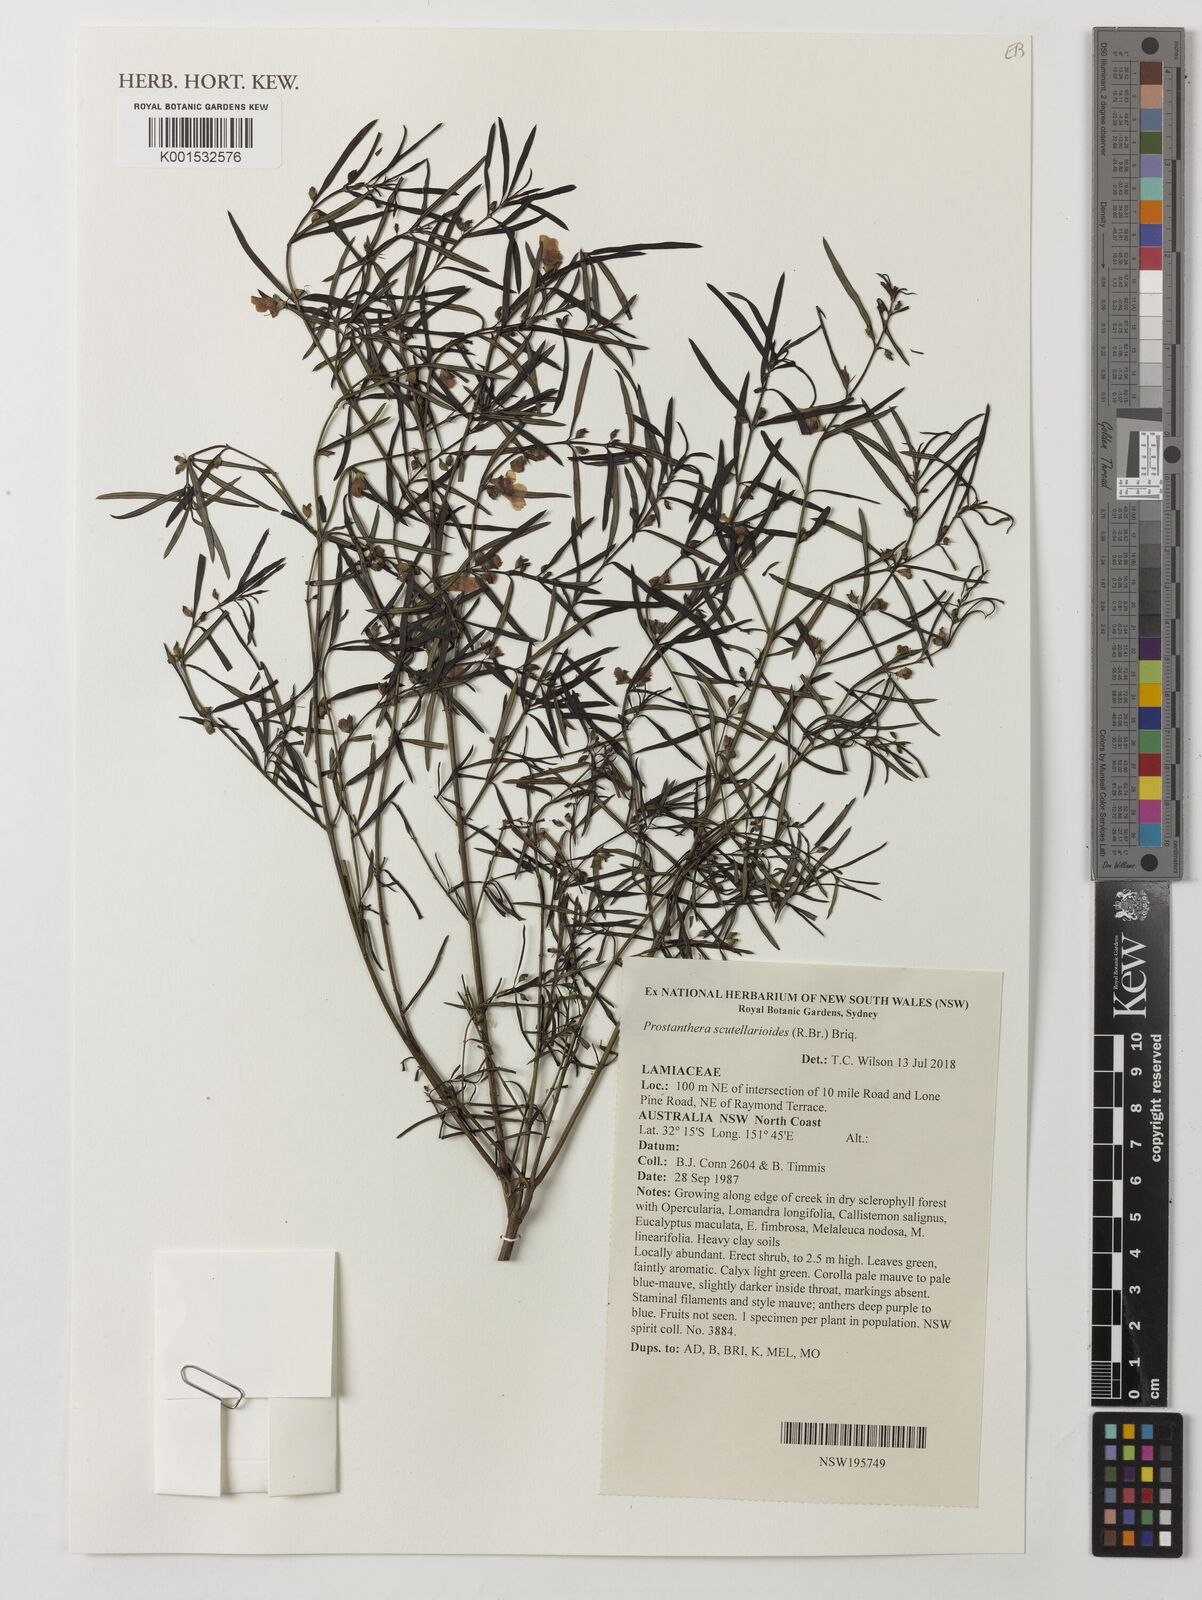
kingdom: Plantae
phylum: Tracheophyta
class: Magnoliopsida
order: Lamiales
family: Lamiaceae
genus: Prostanthera
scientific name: Prostanthera scutellarioides
